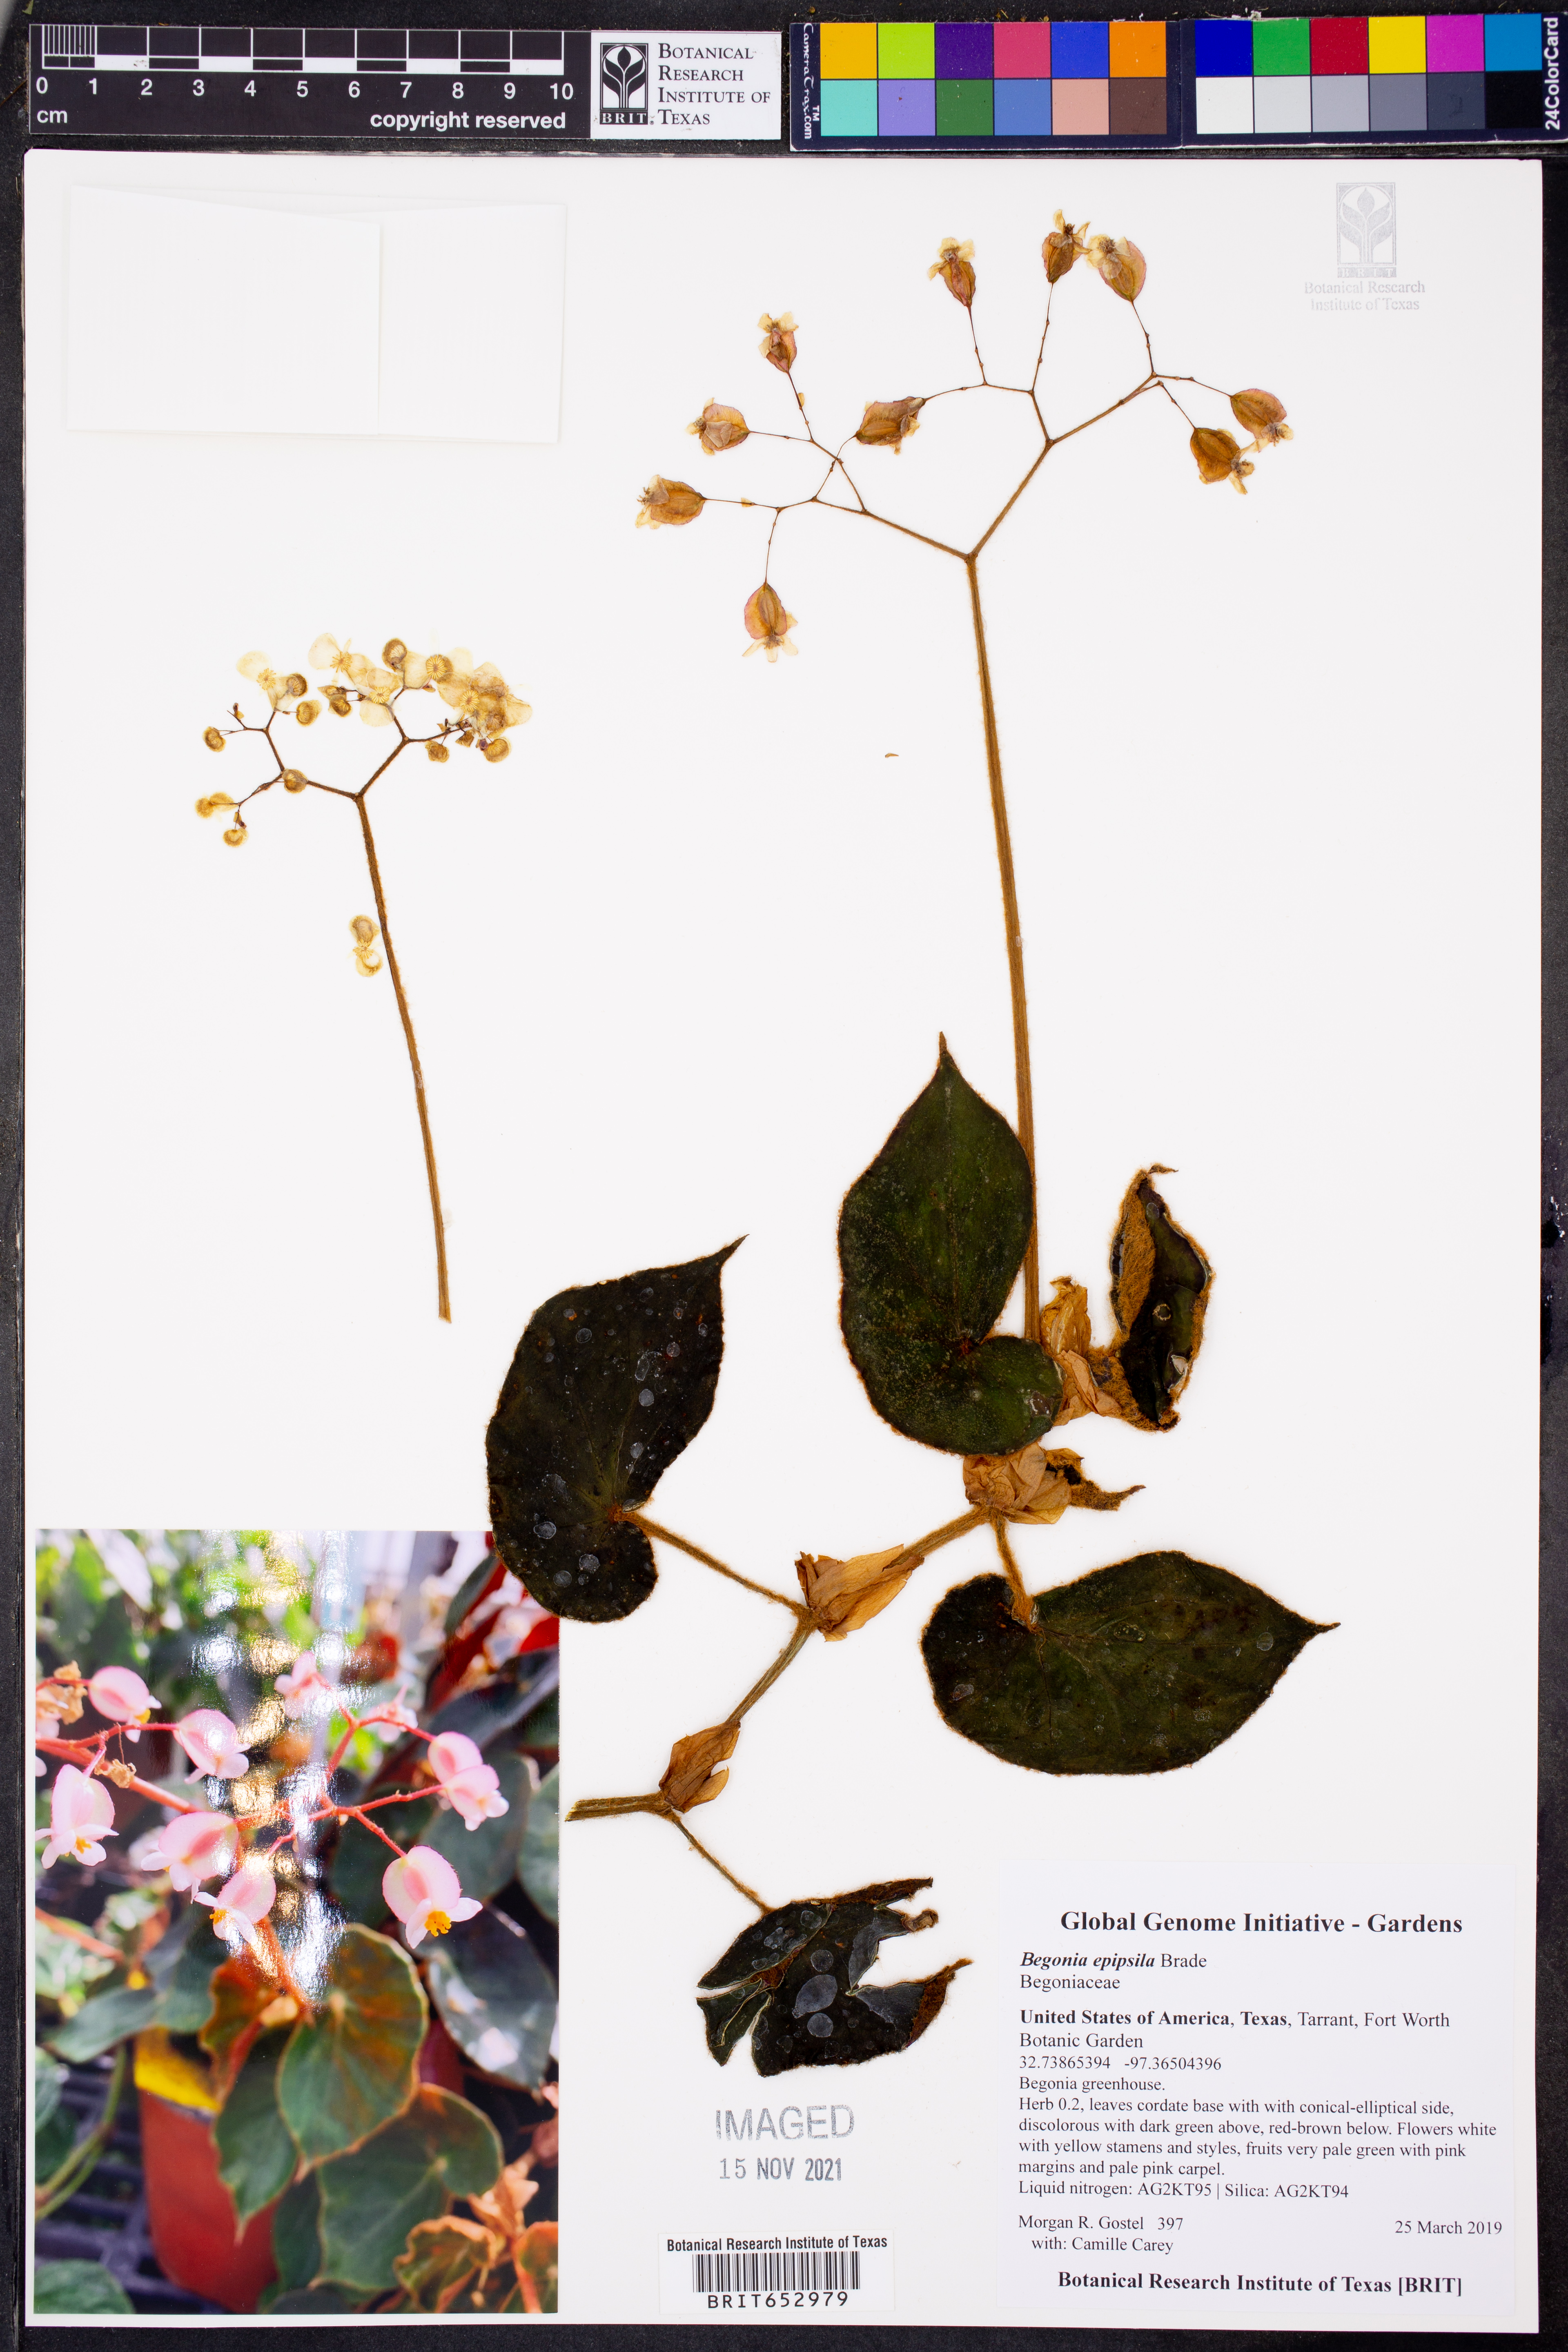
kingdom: Plantae
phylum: Tracheophyta
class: Magnoliopsida
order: Cucurbitales
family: Begoniaceae
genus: Begonia
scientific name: Begonia epipsila
